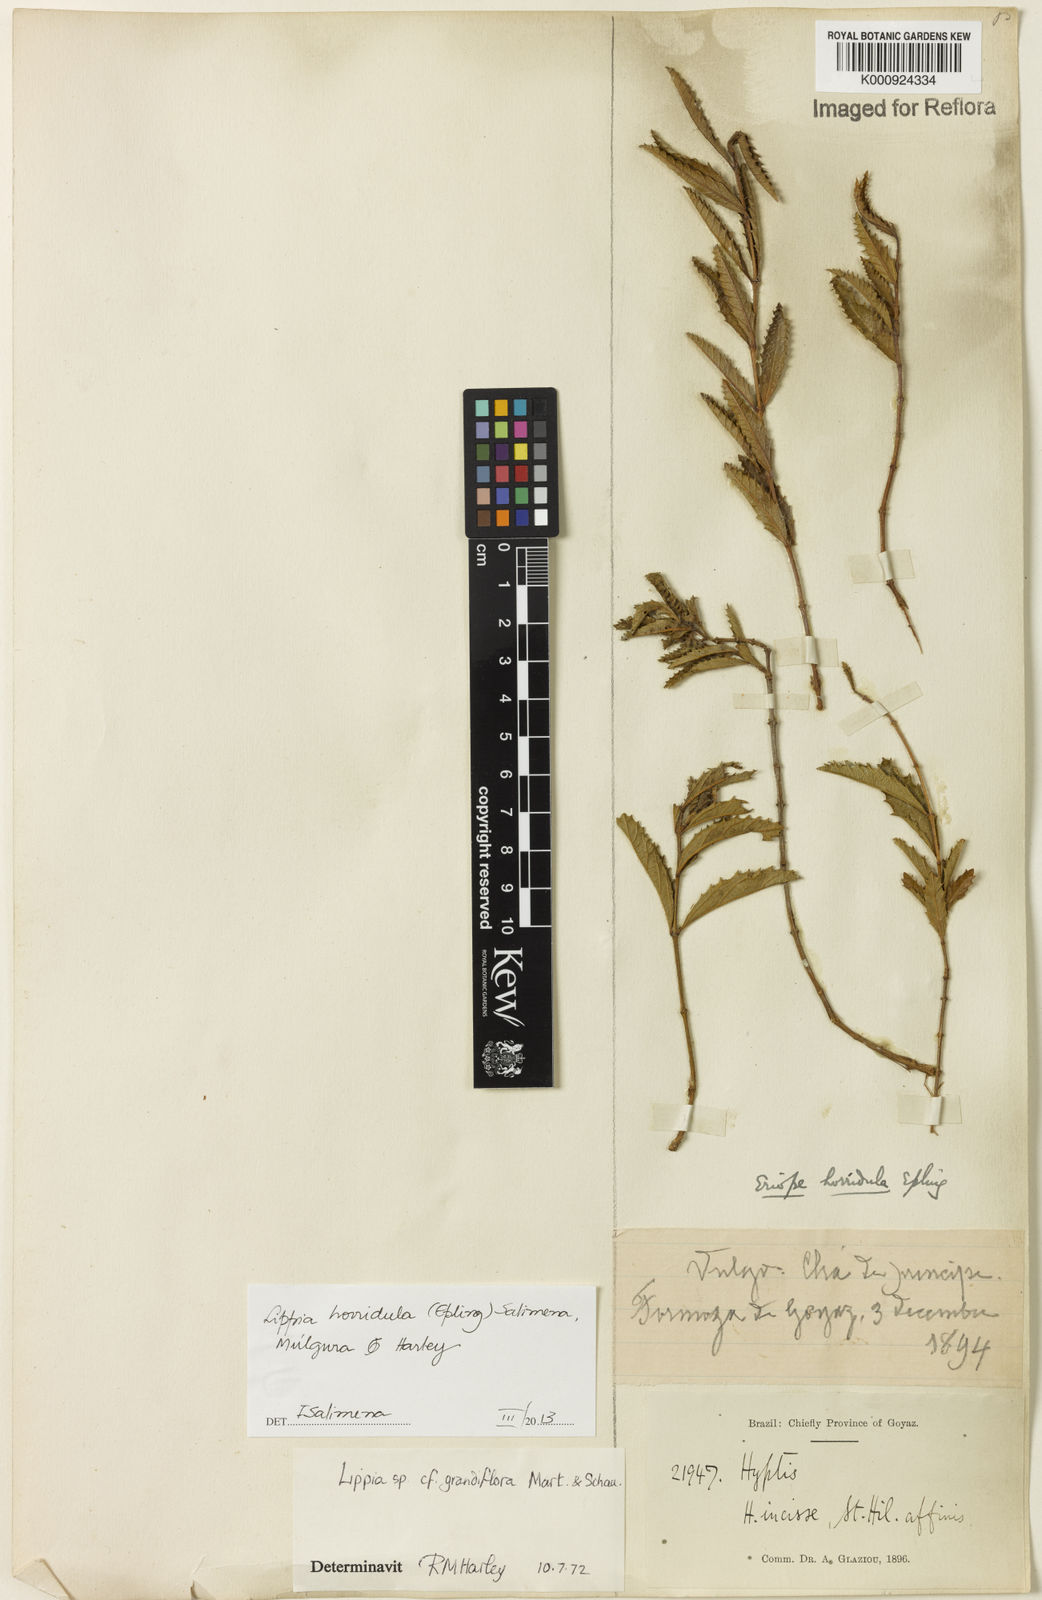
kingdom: Plantae
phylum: Tracheophyta
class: Magnoliopsida
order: Lamiales
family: Verbenaceae
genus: Lippia
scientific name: Lippia
